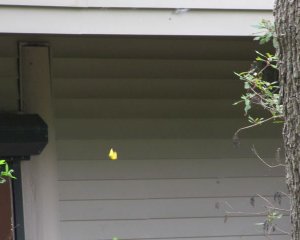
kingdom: Animalia
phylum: Arthropoda
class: Insecta
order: Lepidoptera
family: Pieridae
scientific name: Pieridae
